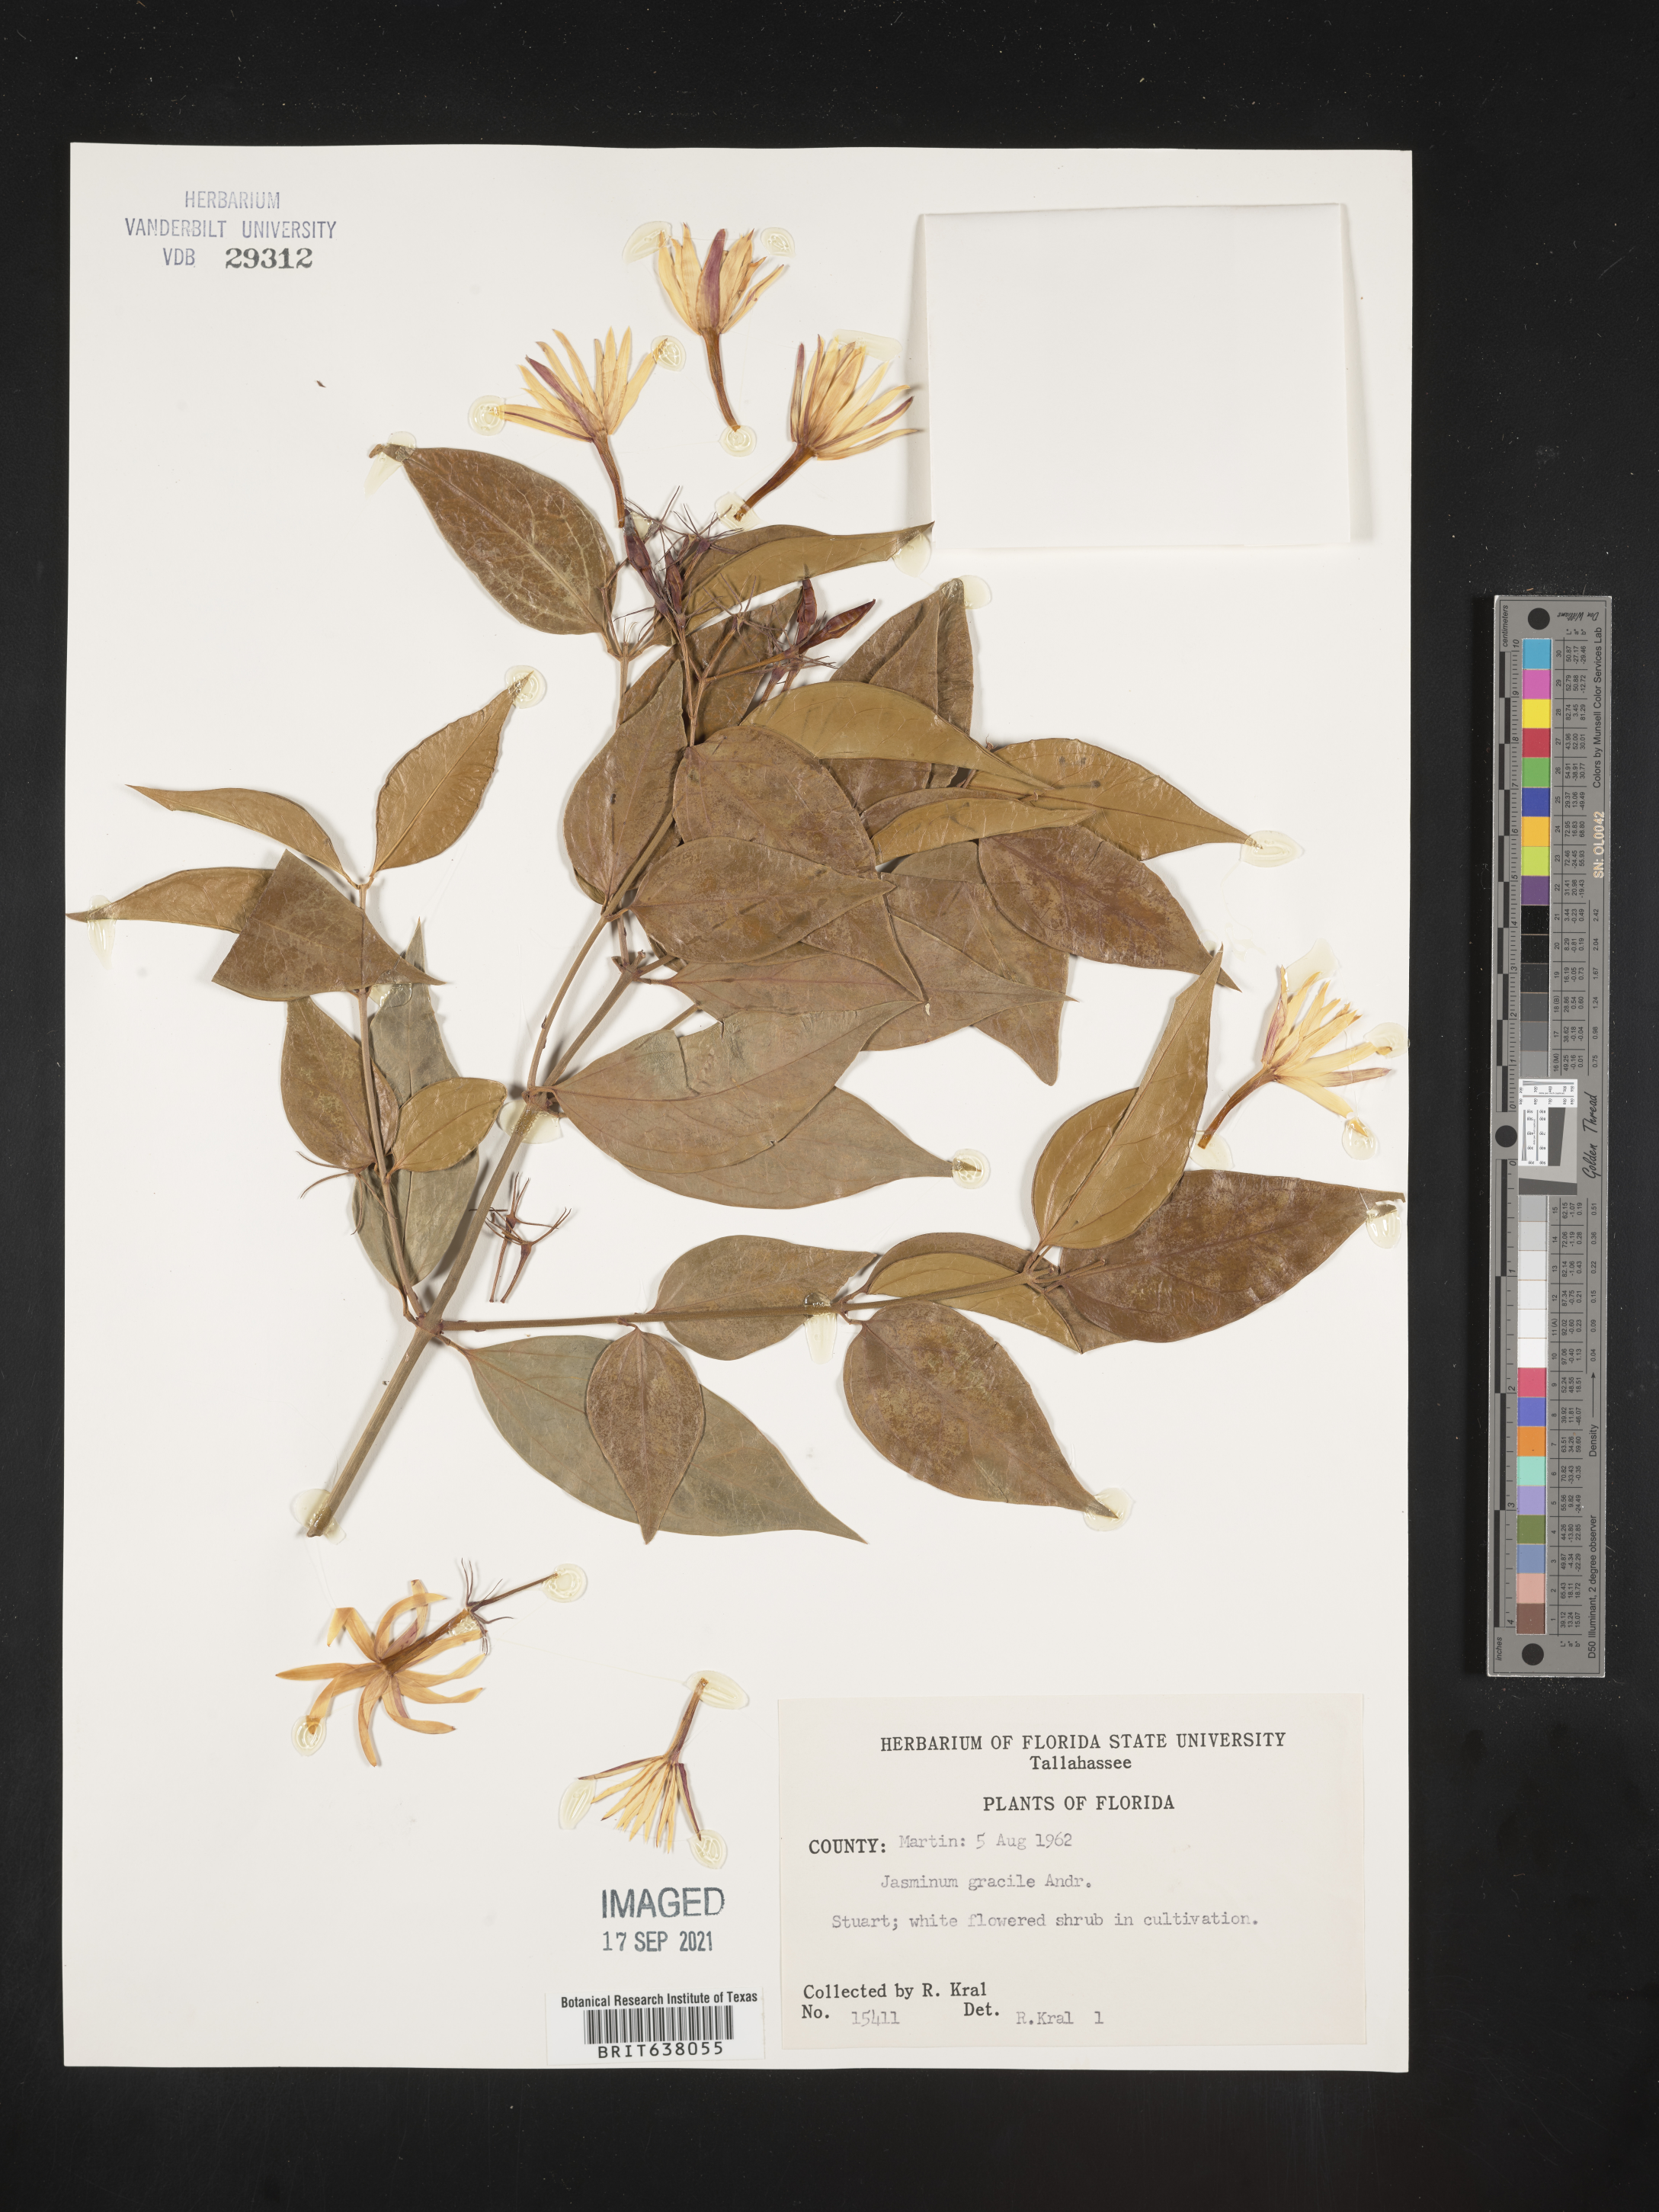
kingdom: Plantae
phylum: Tracheophyta
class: Magnoliopsida
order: Lamiales
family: Oleaceae
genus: Jasminum
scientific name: Jasminum
